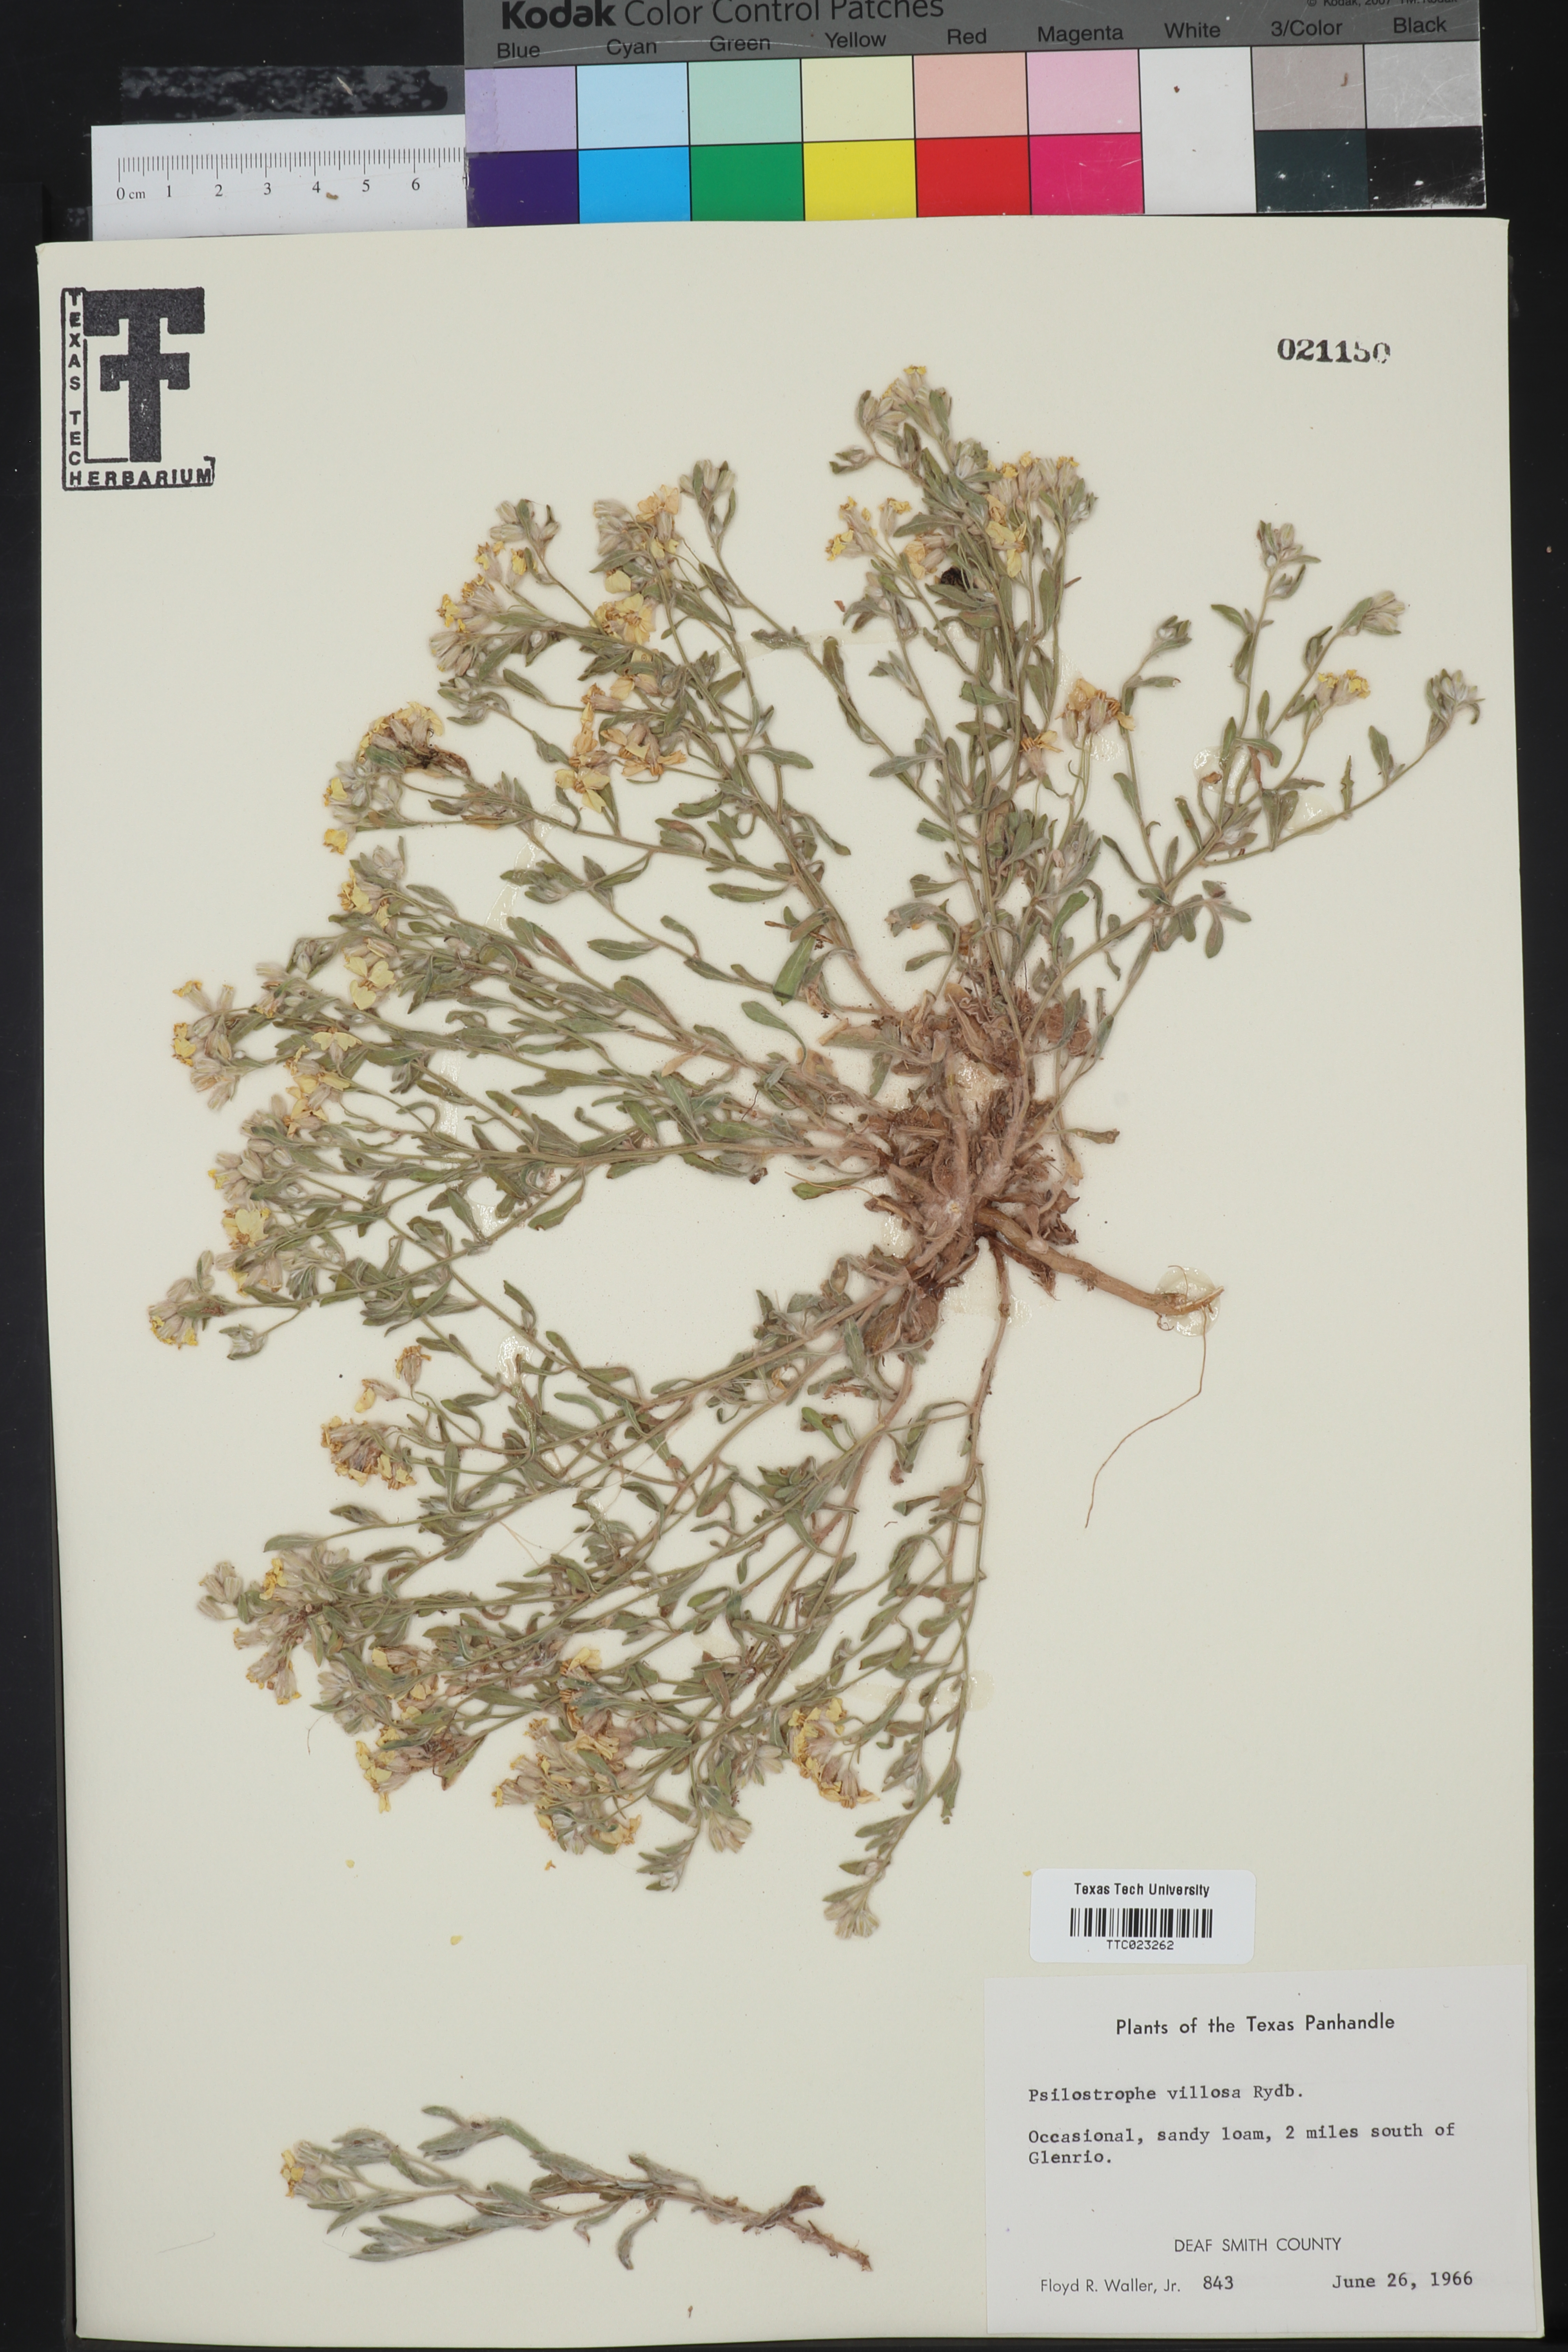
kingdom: Plantae
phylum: Tracheophyta
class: Magnoliopsida
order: Asterales
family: Asteraceae
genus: Psilostrophe
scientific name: Psilostrophe villosa
